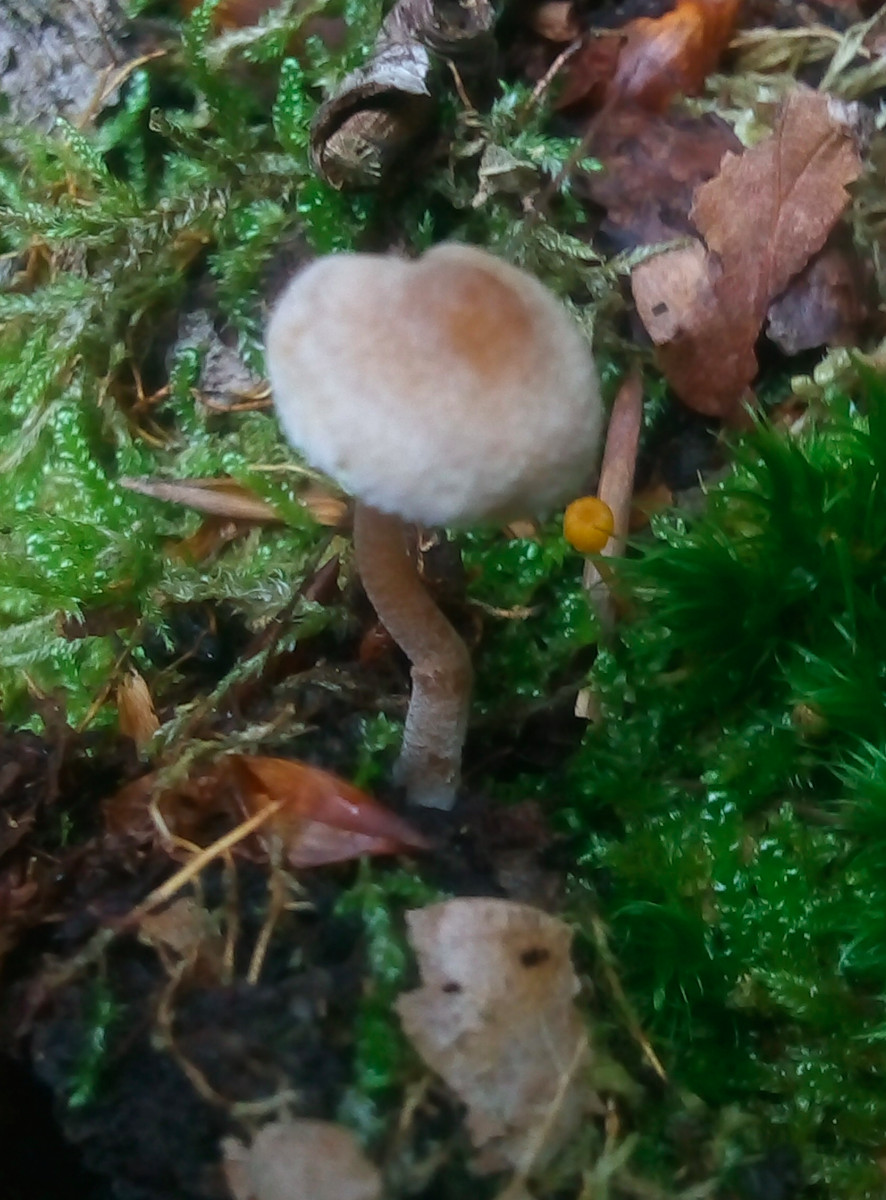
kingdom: Fungi
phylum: Basidiomycota
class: Agaricomycetes
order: Agaricales
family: Inocybaceae
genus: Inocybe
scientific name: Inocybe petiginosa
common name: liden trævlhat
